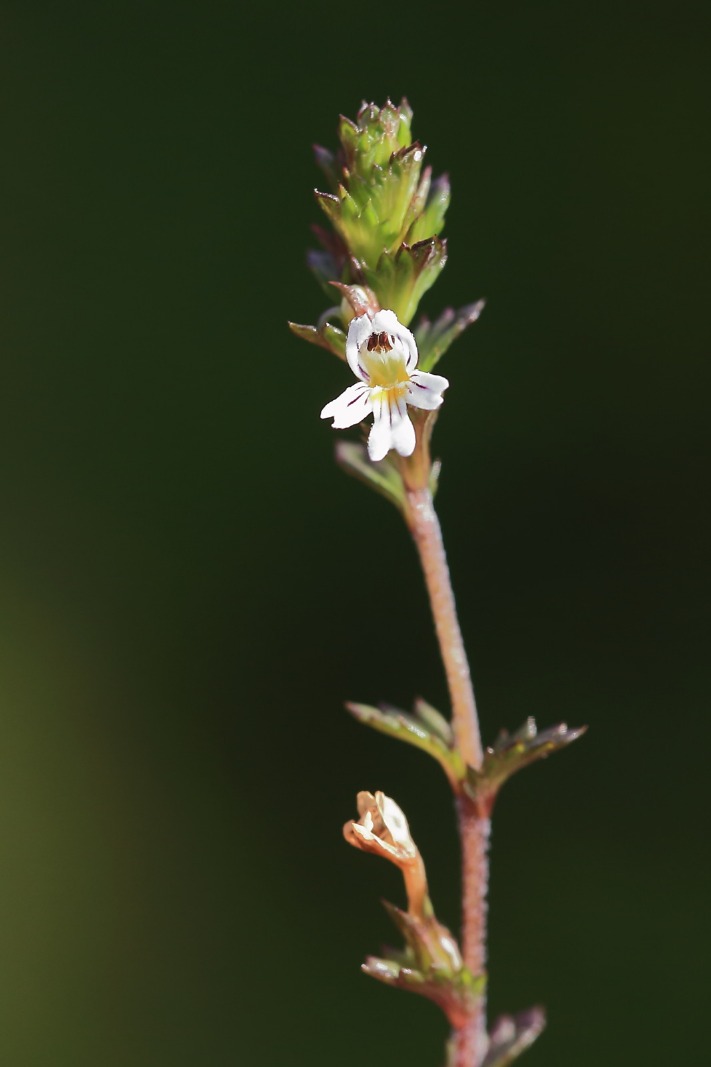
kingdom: Plantae
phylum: Tracheophyta
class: Magnoliopsida
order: Lamiales
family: Orobanchaceae
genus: Euphrasia
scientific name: Euphrasia stricta
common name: Spids øjentrøst
